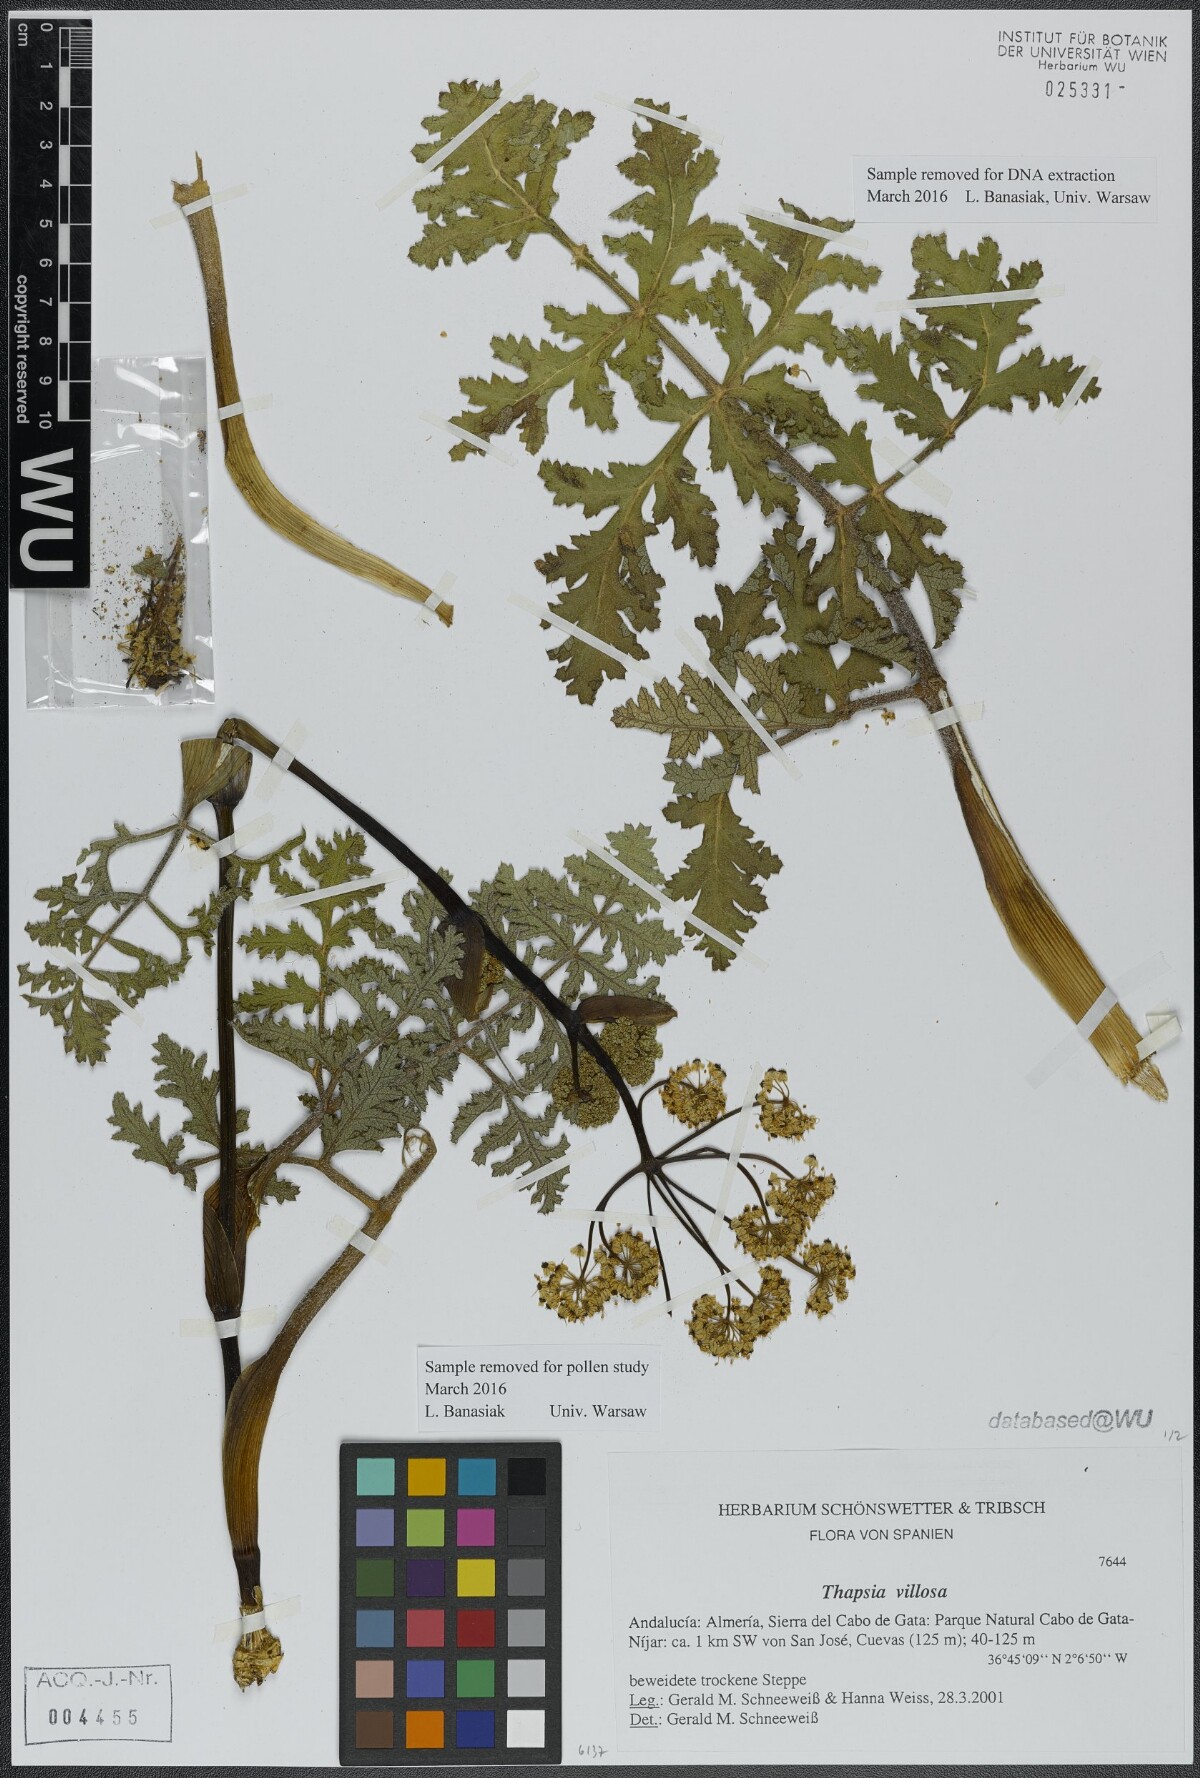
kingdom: Plantae
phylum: Tracheophyta
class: Magnoliopsida
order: Apiales
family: Apiaceae
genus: Thapsia
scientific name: Thapsia villosa
